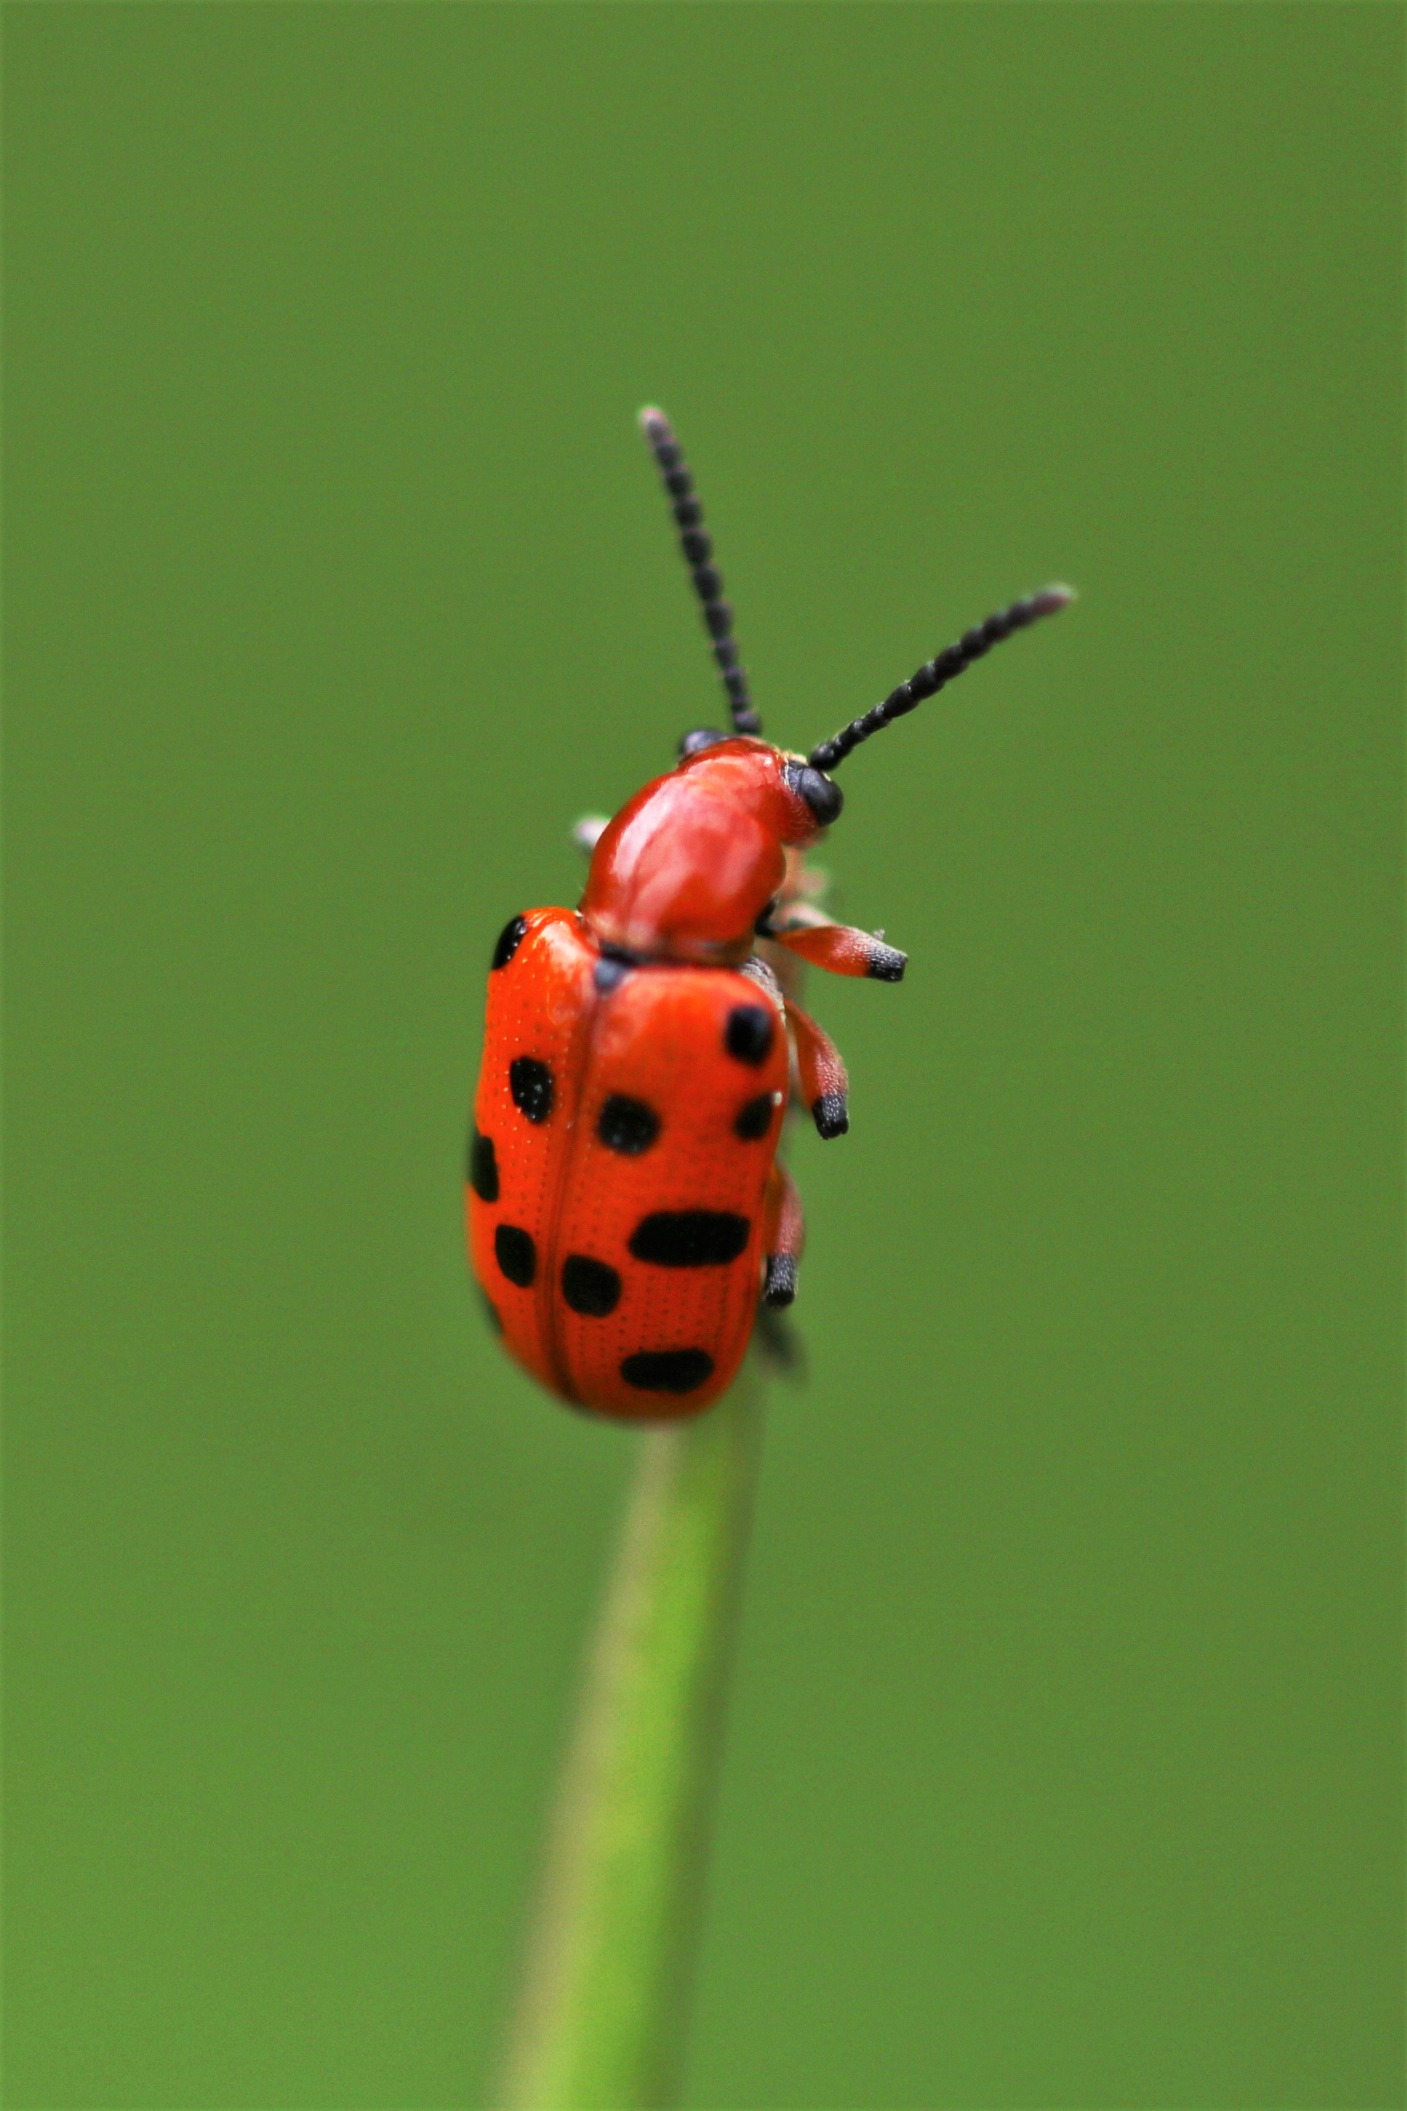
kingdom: Animalia
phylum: Arthropoda
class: Insecta
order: Coleoptera
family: Chrysomelidae
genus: Crioceris
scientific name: Crioceris duodecimpunctata
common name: Tolvplettet aspargesbille
